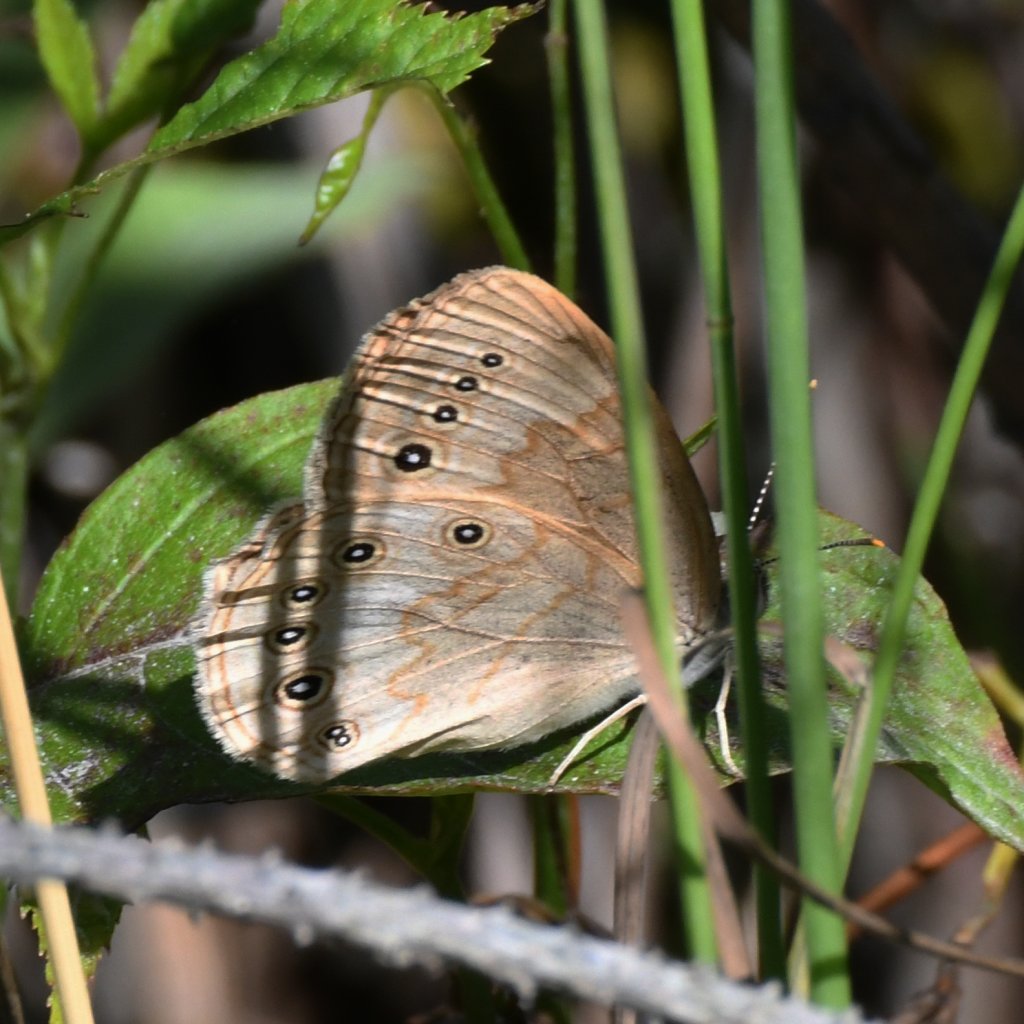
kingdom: Animalia
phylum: Arthropoda
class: Insecta
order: Lepidoptera
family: Nymphalidae
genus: Lethe
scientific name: Lethe eurydice
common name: Eyed Brown
